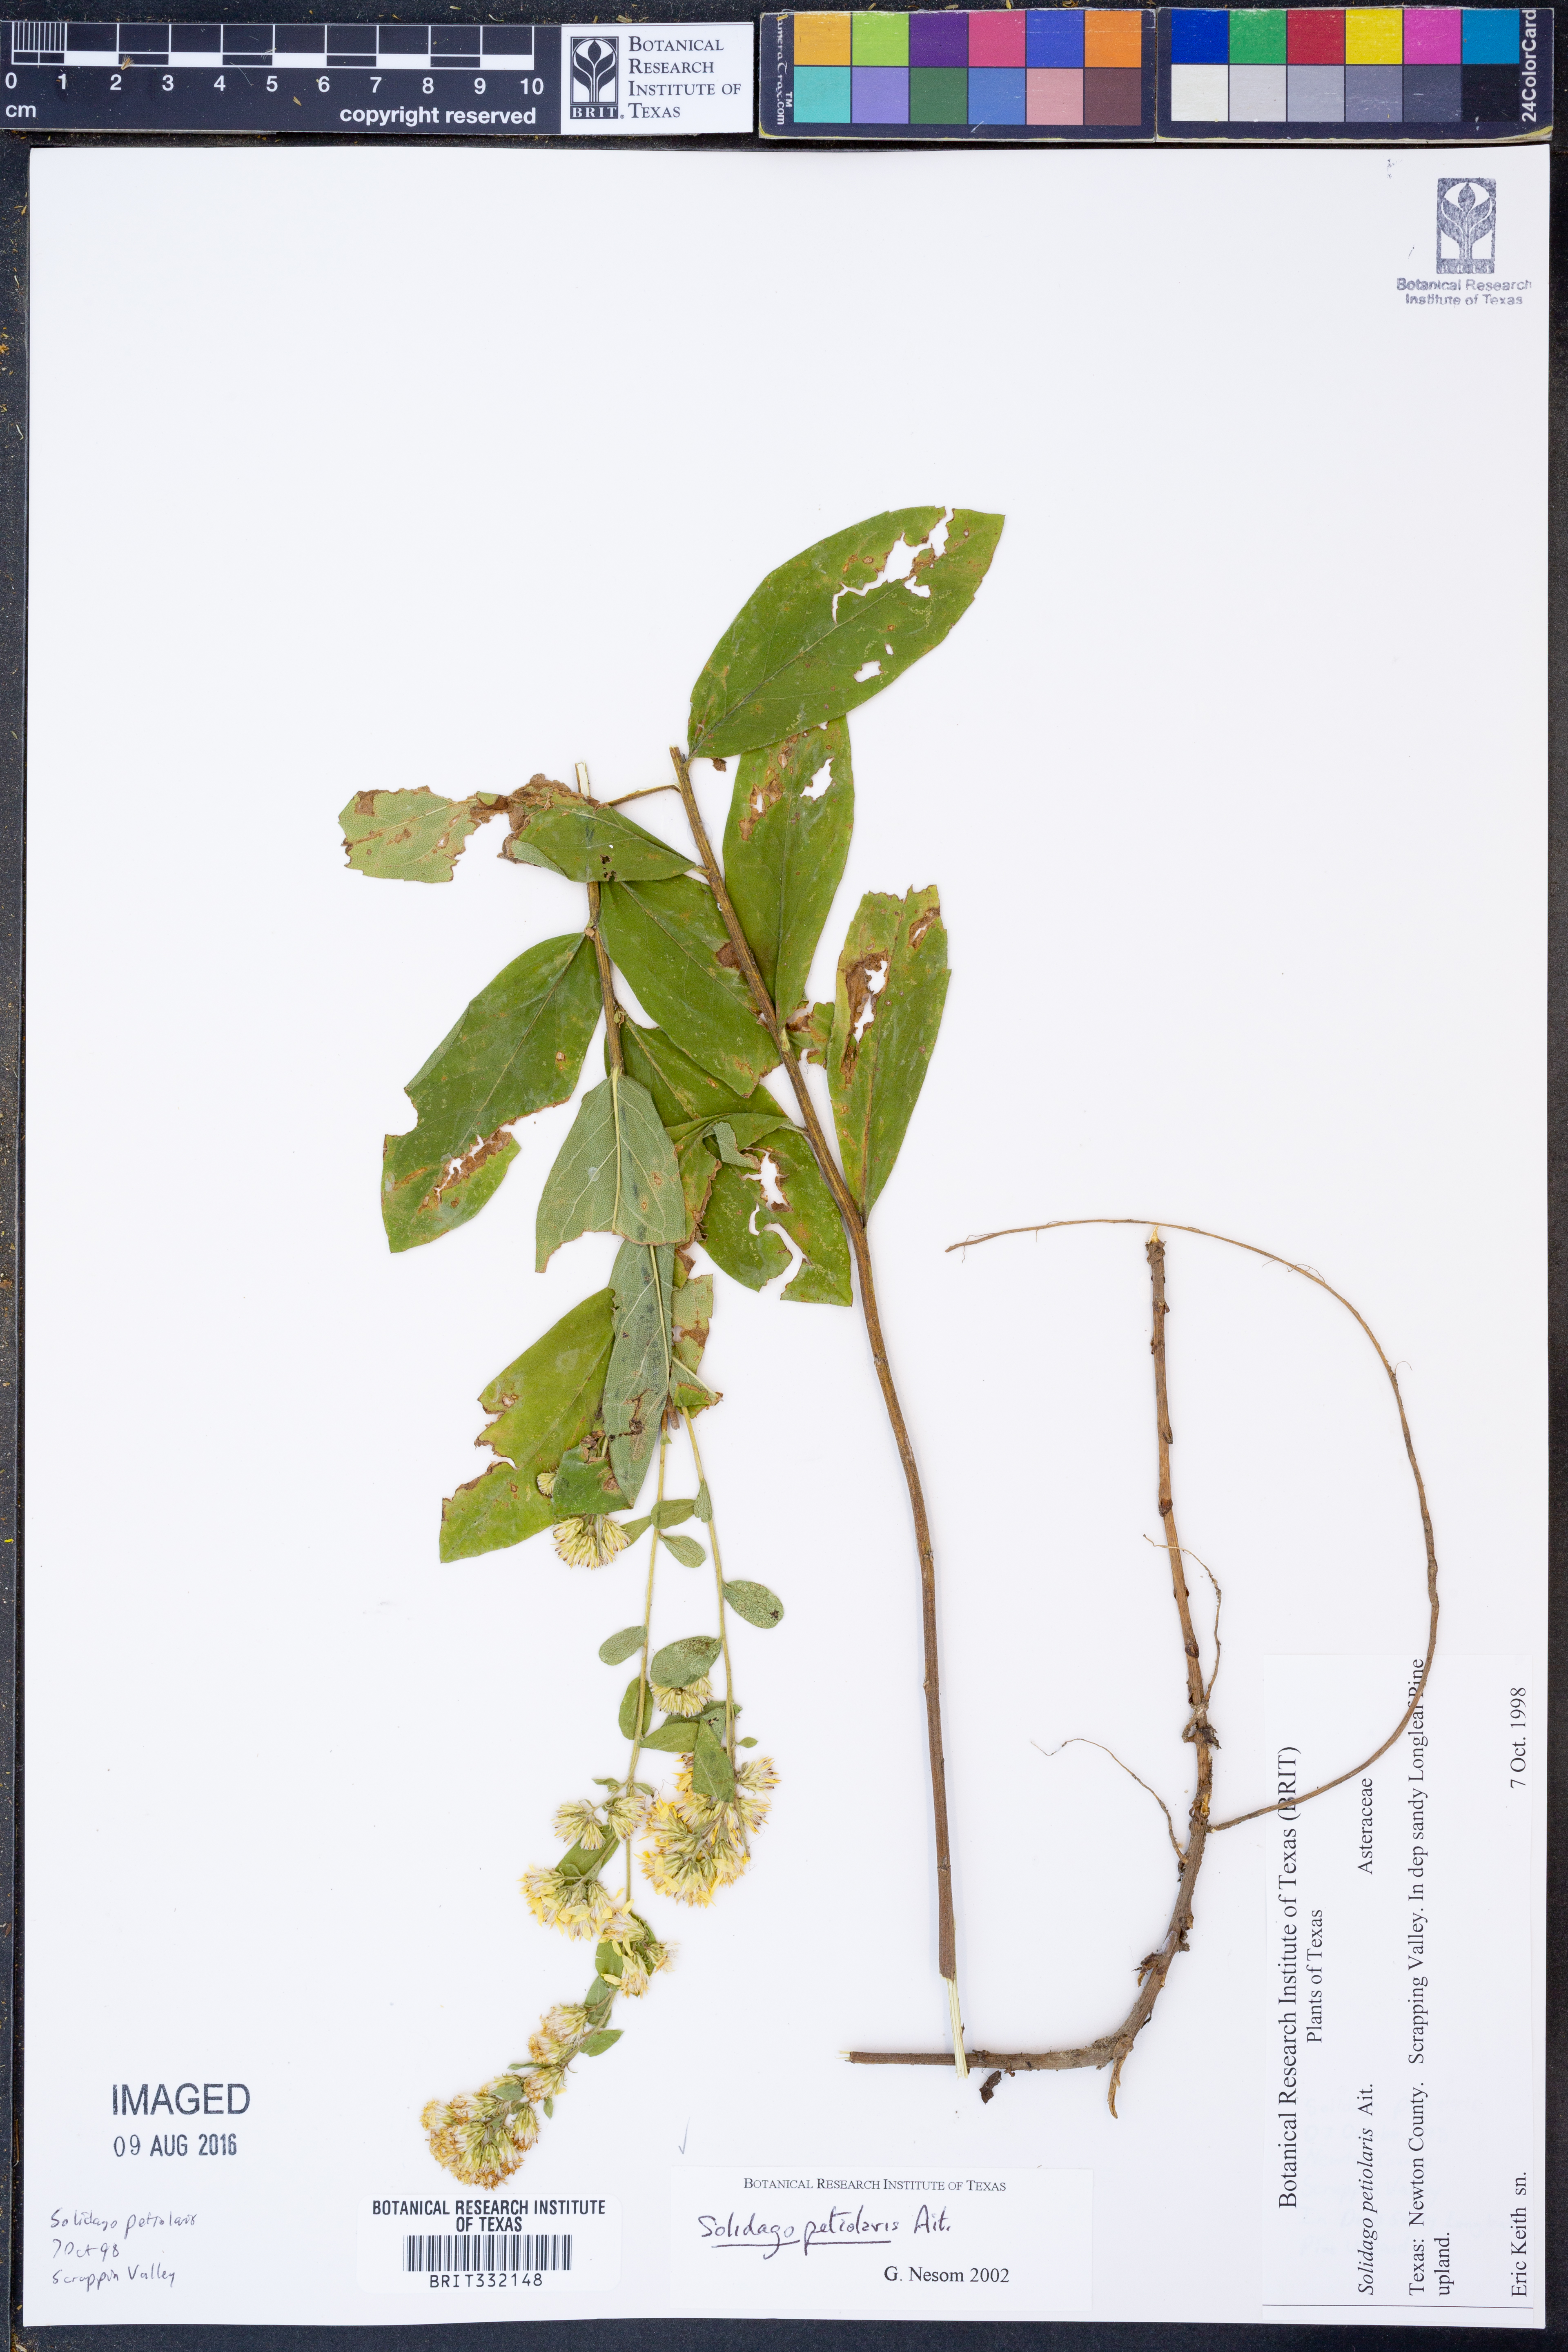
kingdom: Plantae
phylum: Tracheophyta
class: Magnoliopsida
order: Asterales
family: Asteraceae
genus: Solidago
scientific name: Solidago petiolaris
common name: Downy ragged goldenrod
